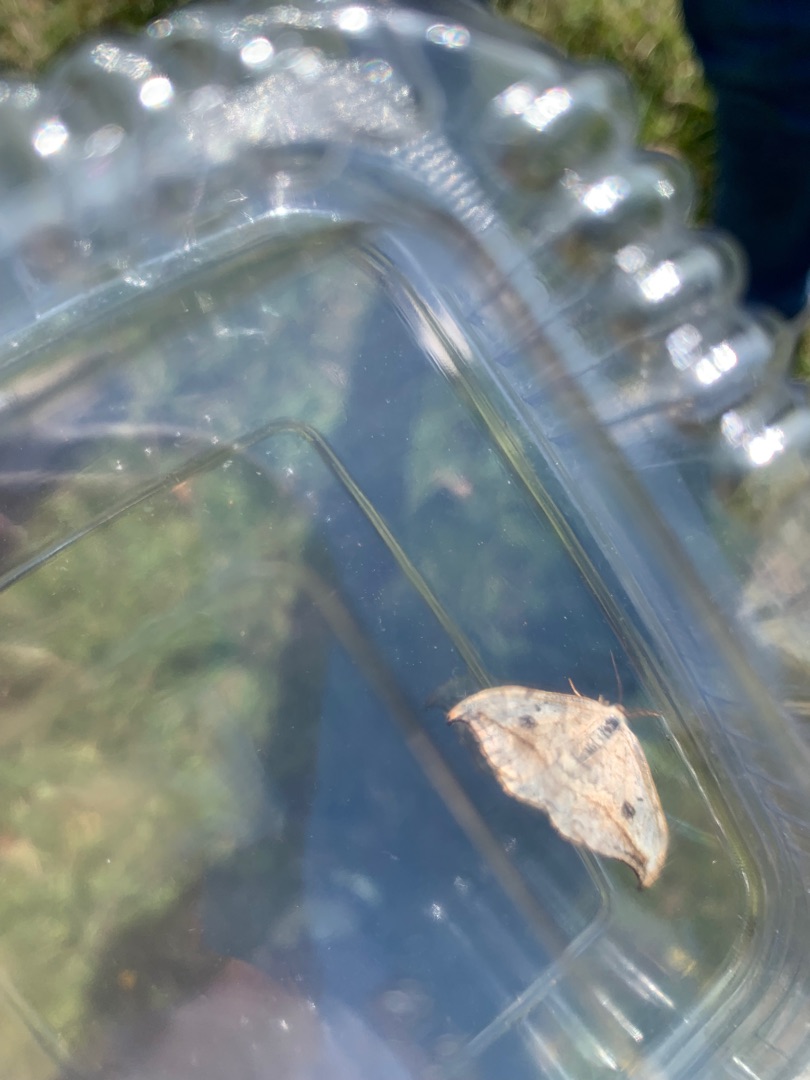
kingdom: Animalia
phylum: Arthropoda
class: Insecta
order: Lepidoptera
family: Drepanidae
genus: Drepana
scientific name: Drepana falcataria
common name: Birkeseglvinge
